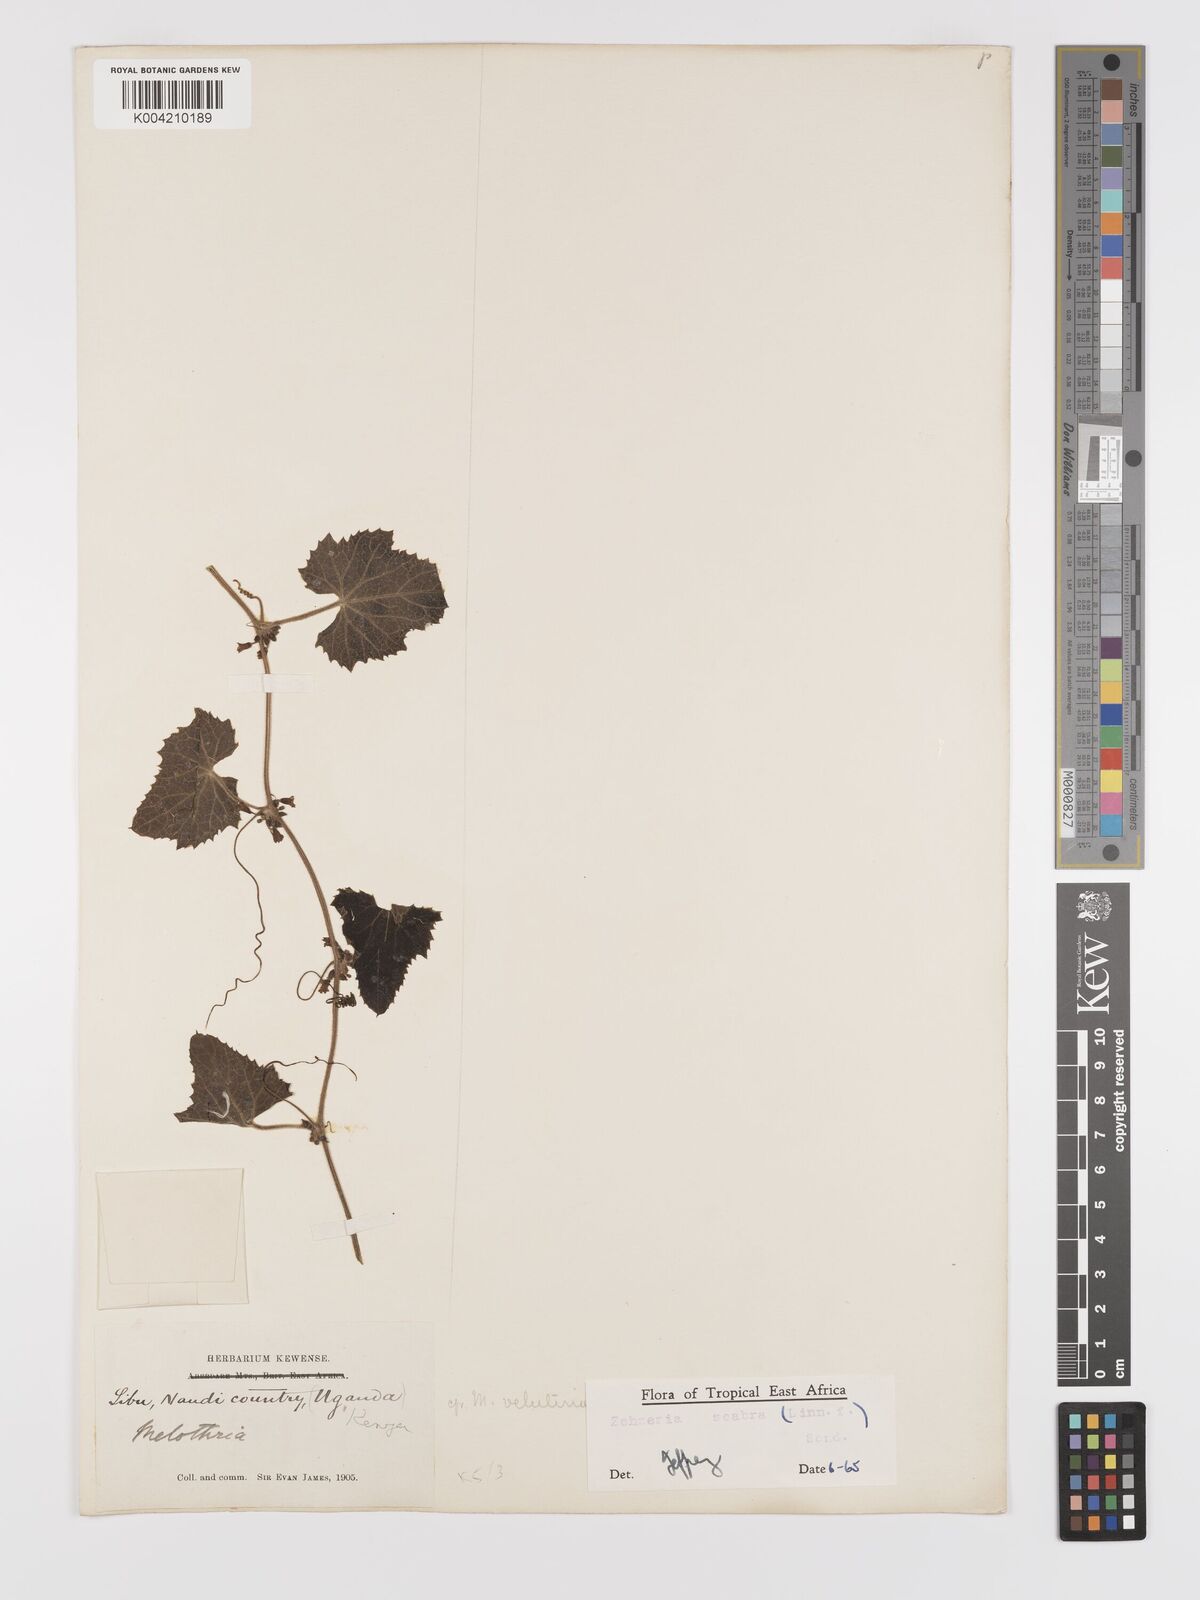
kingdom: Plantae
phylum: Tracheophyta
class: Magnoliopsida
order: Cucurbitales
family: Cucurbitaceae
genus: Zehneria
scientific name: Zehneria scabra
